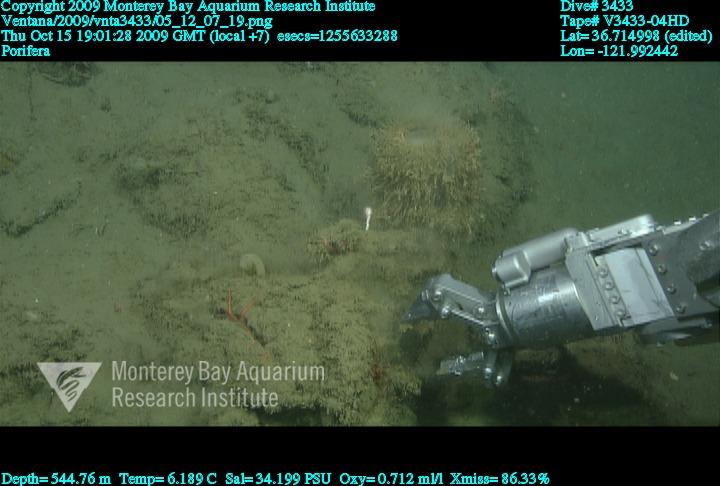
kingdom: Animalia
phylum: Porifera
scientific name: Porifera
